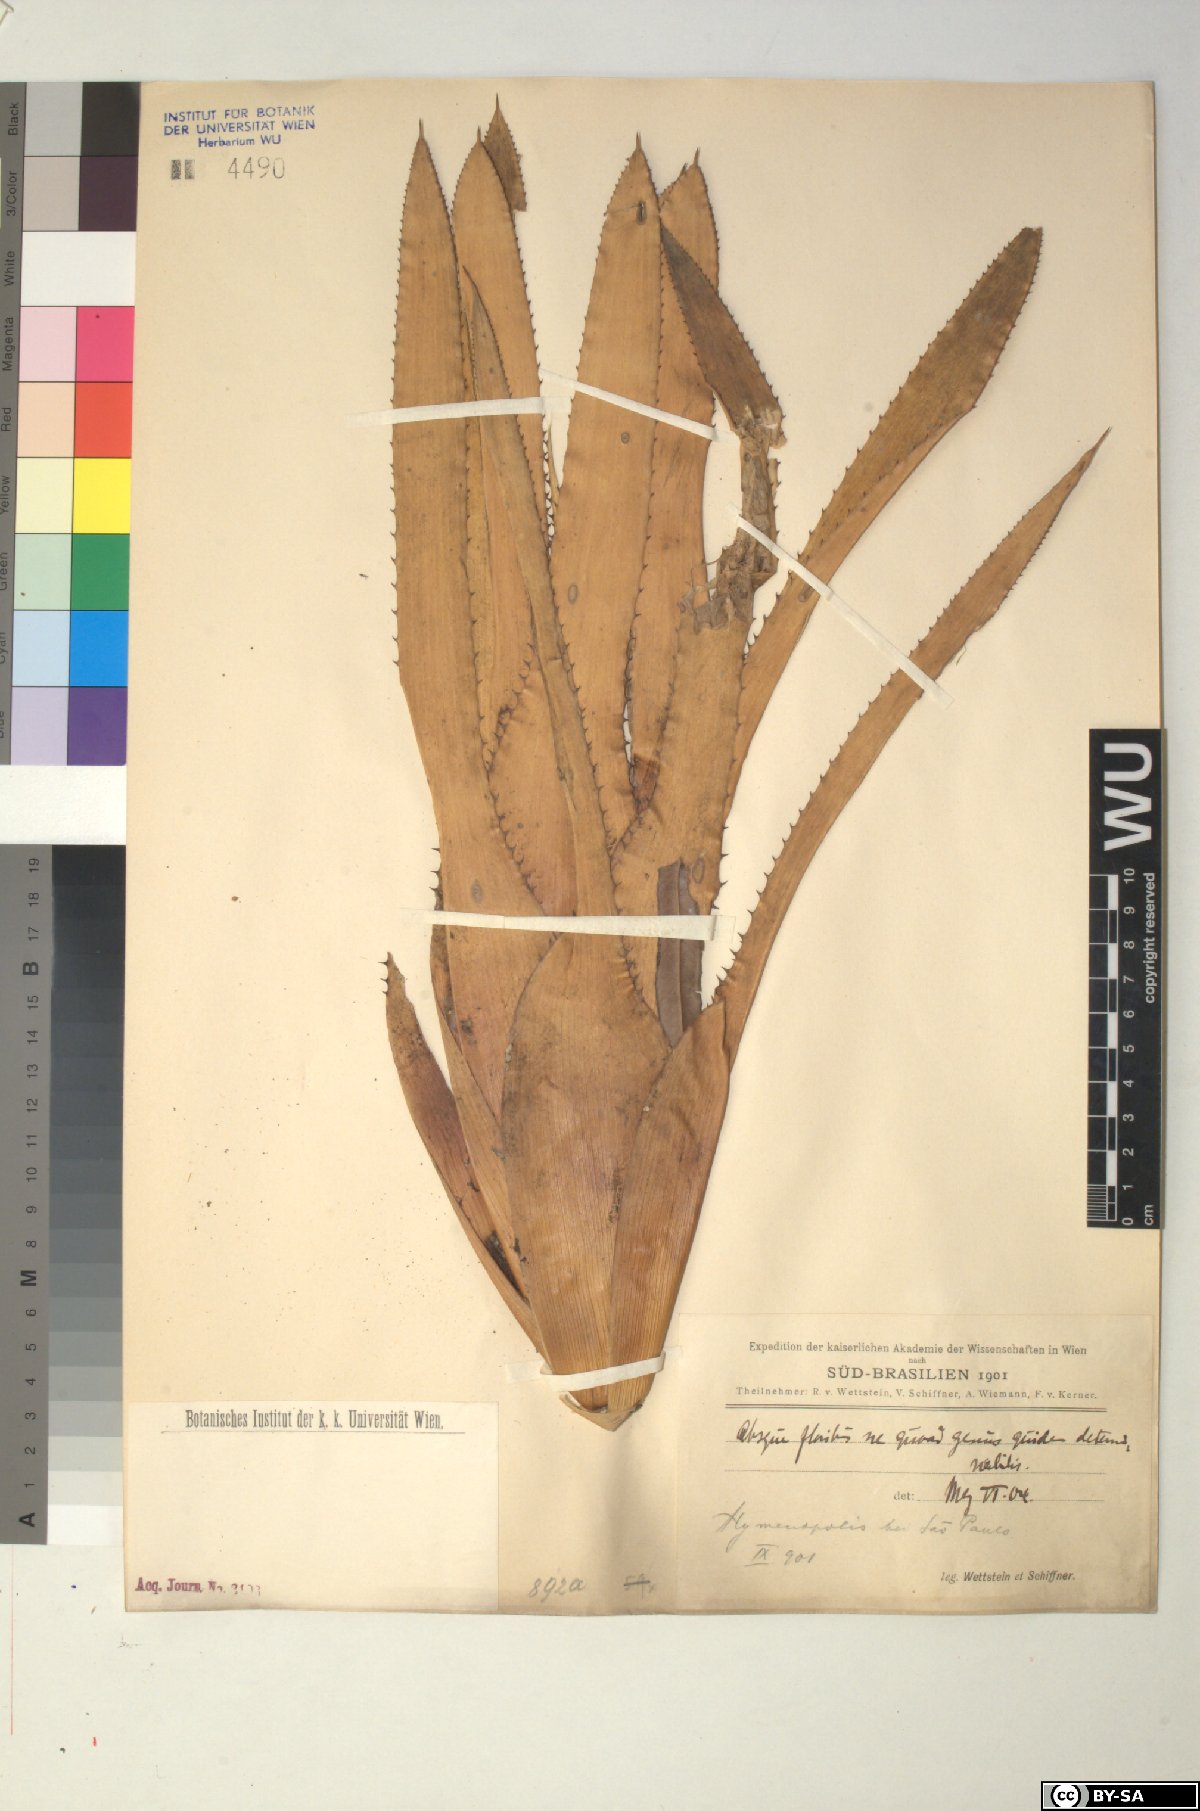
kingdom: Plantae
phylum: Tracheophyta
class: Liliopsida
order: Poales
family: Bromeliaceae
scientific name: Bromeliaceae
